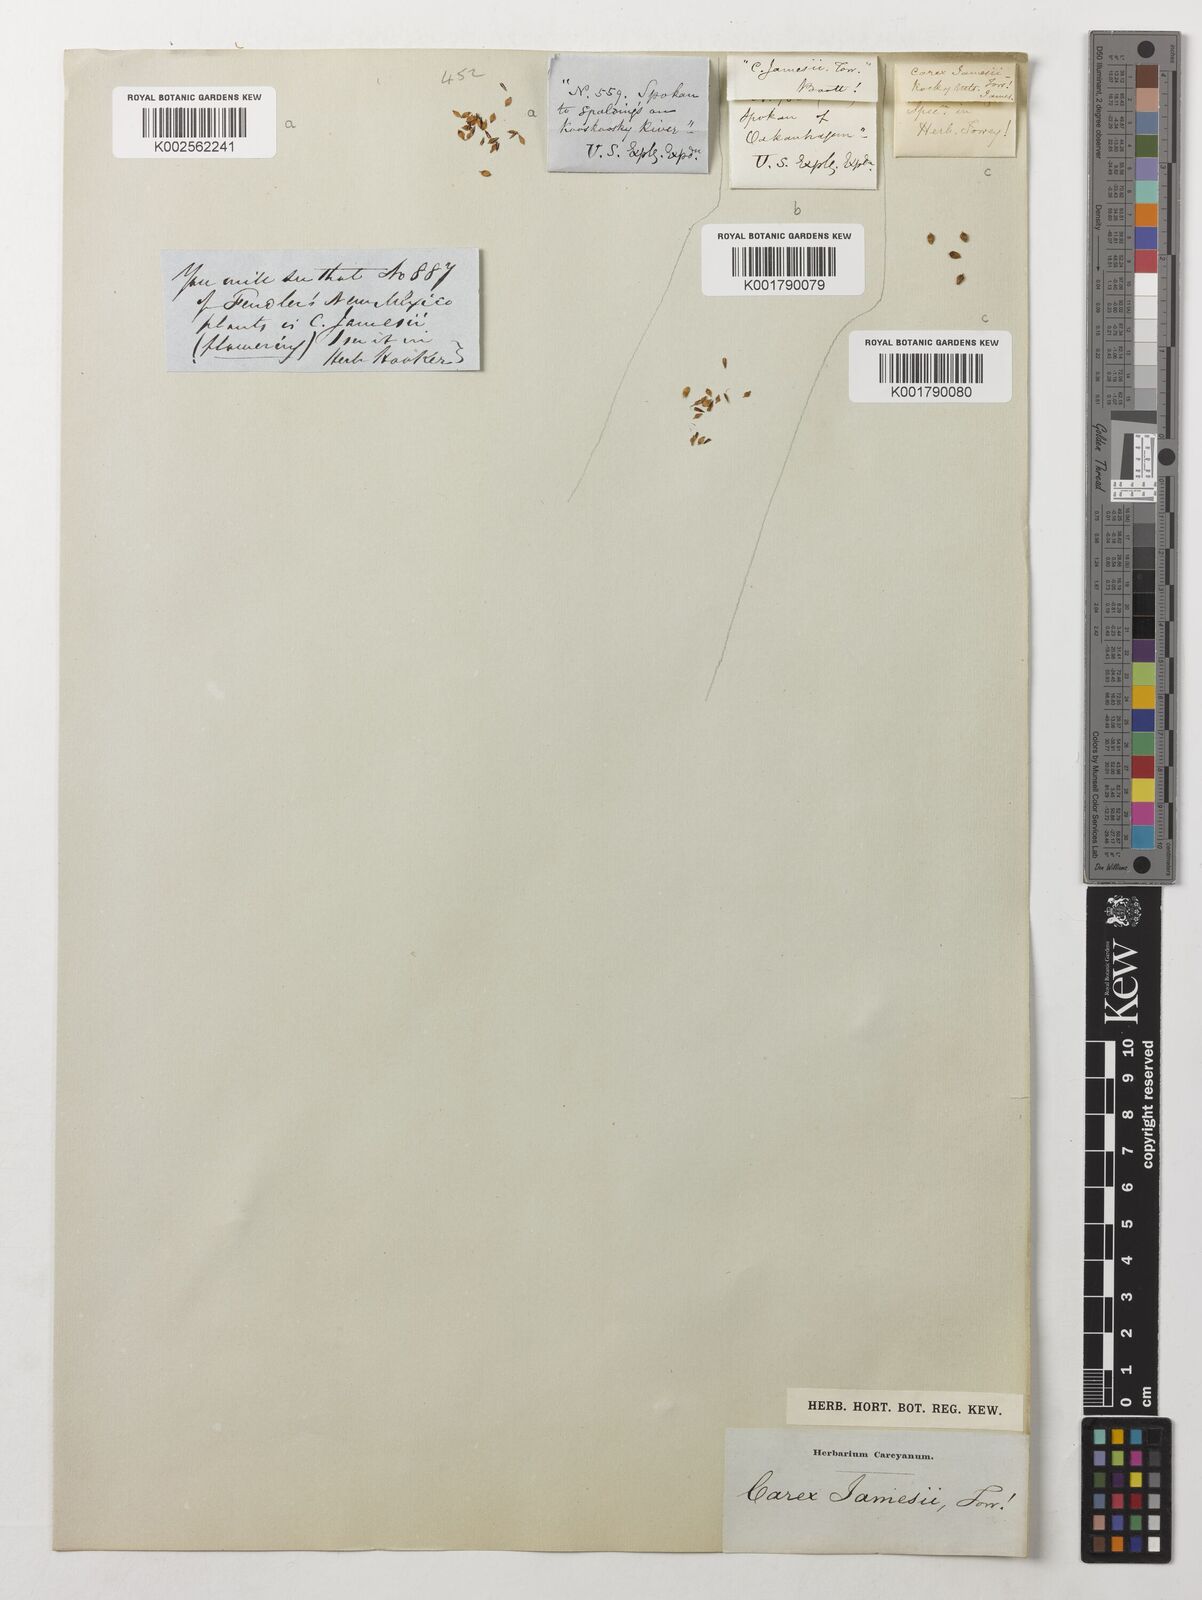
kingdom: Plantae
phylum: Tracheophyta
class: Liliopsida
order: Poales
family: Cyperaceae
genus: Carex
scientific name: Carex jamesii
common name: Grass sedge
